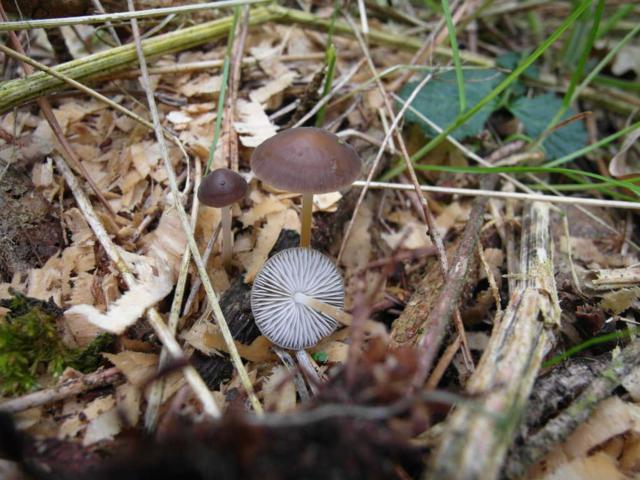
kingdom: Fungi
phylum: Basidiomycota
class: Agaricomycetes
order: Agaricales
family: Physalacriaceae
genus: Strobilurus
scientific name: Strobilurus tenacellus
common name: sommer-koglehat
